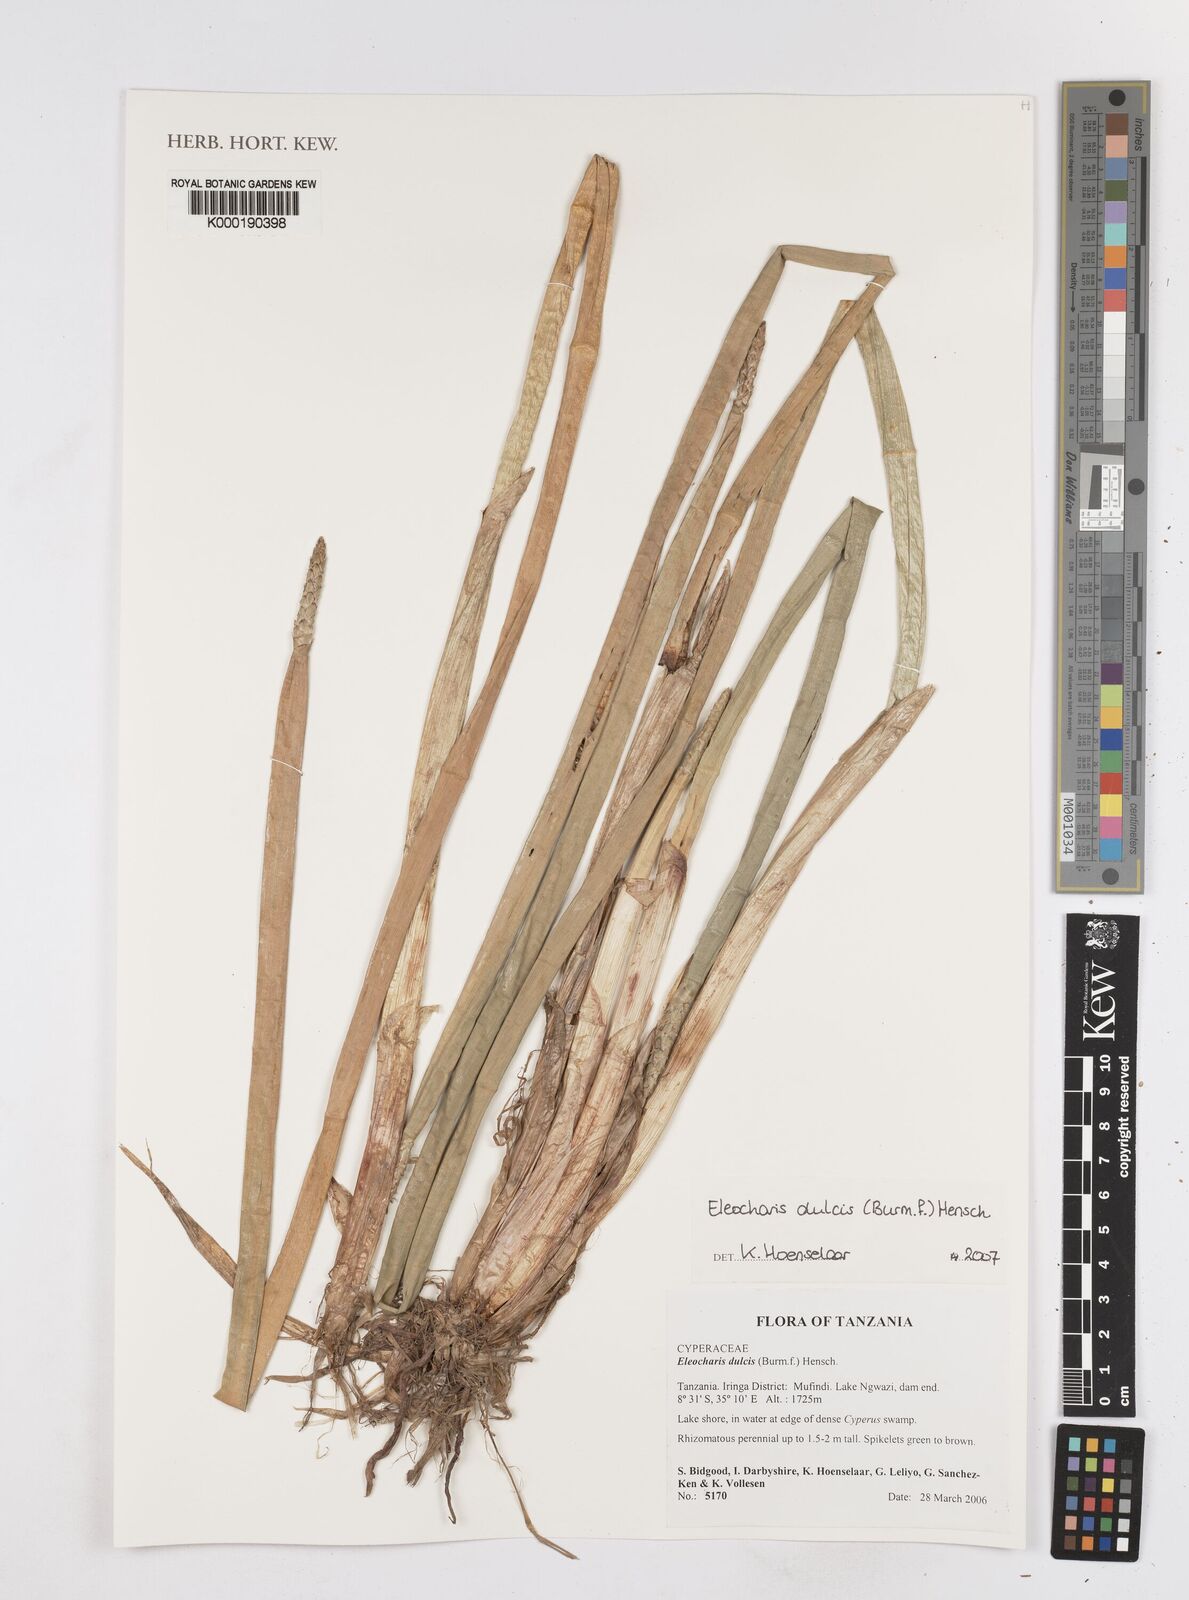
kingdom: Plantae
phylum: Tracheophyta
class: Liliopsida
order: Poales
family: Cyperaceae
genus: Eleocharis
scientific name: Eleocharis dulcis
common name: Chinese water chestnut
